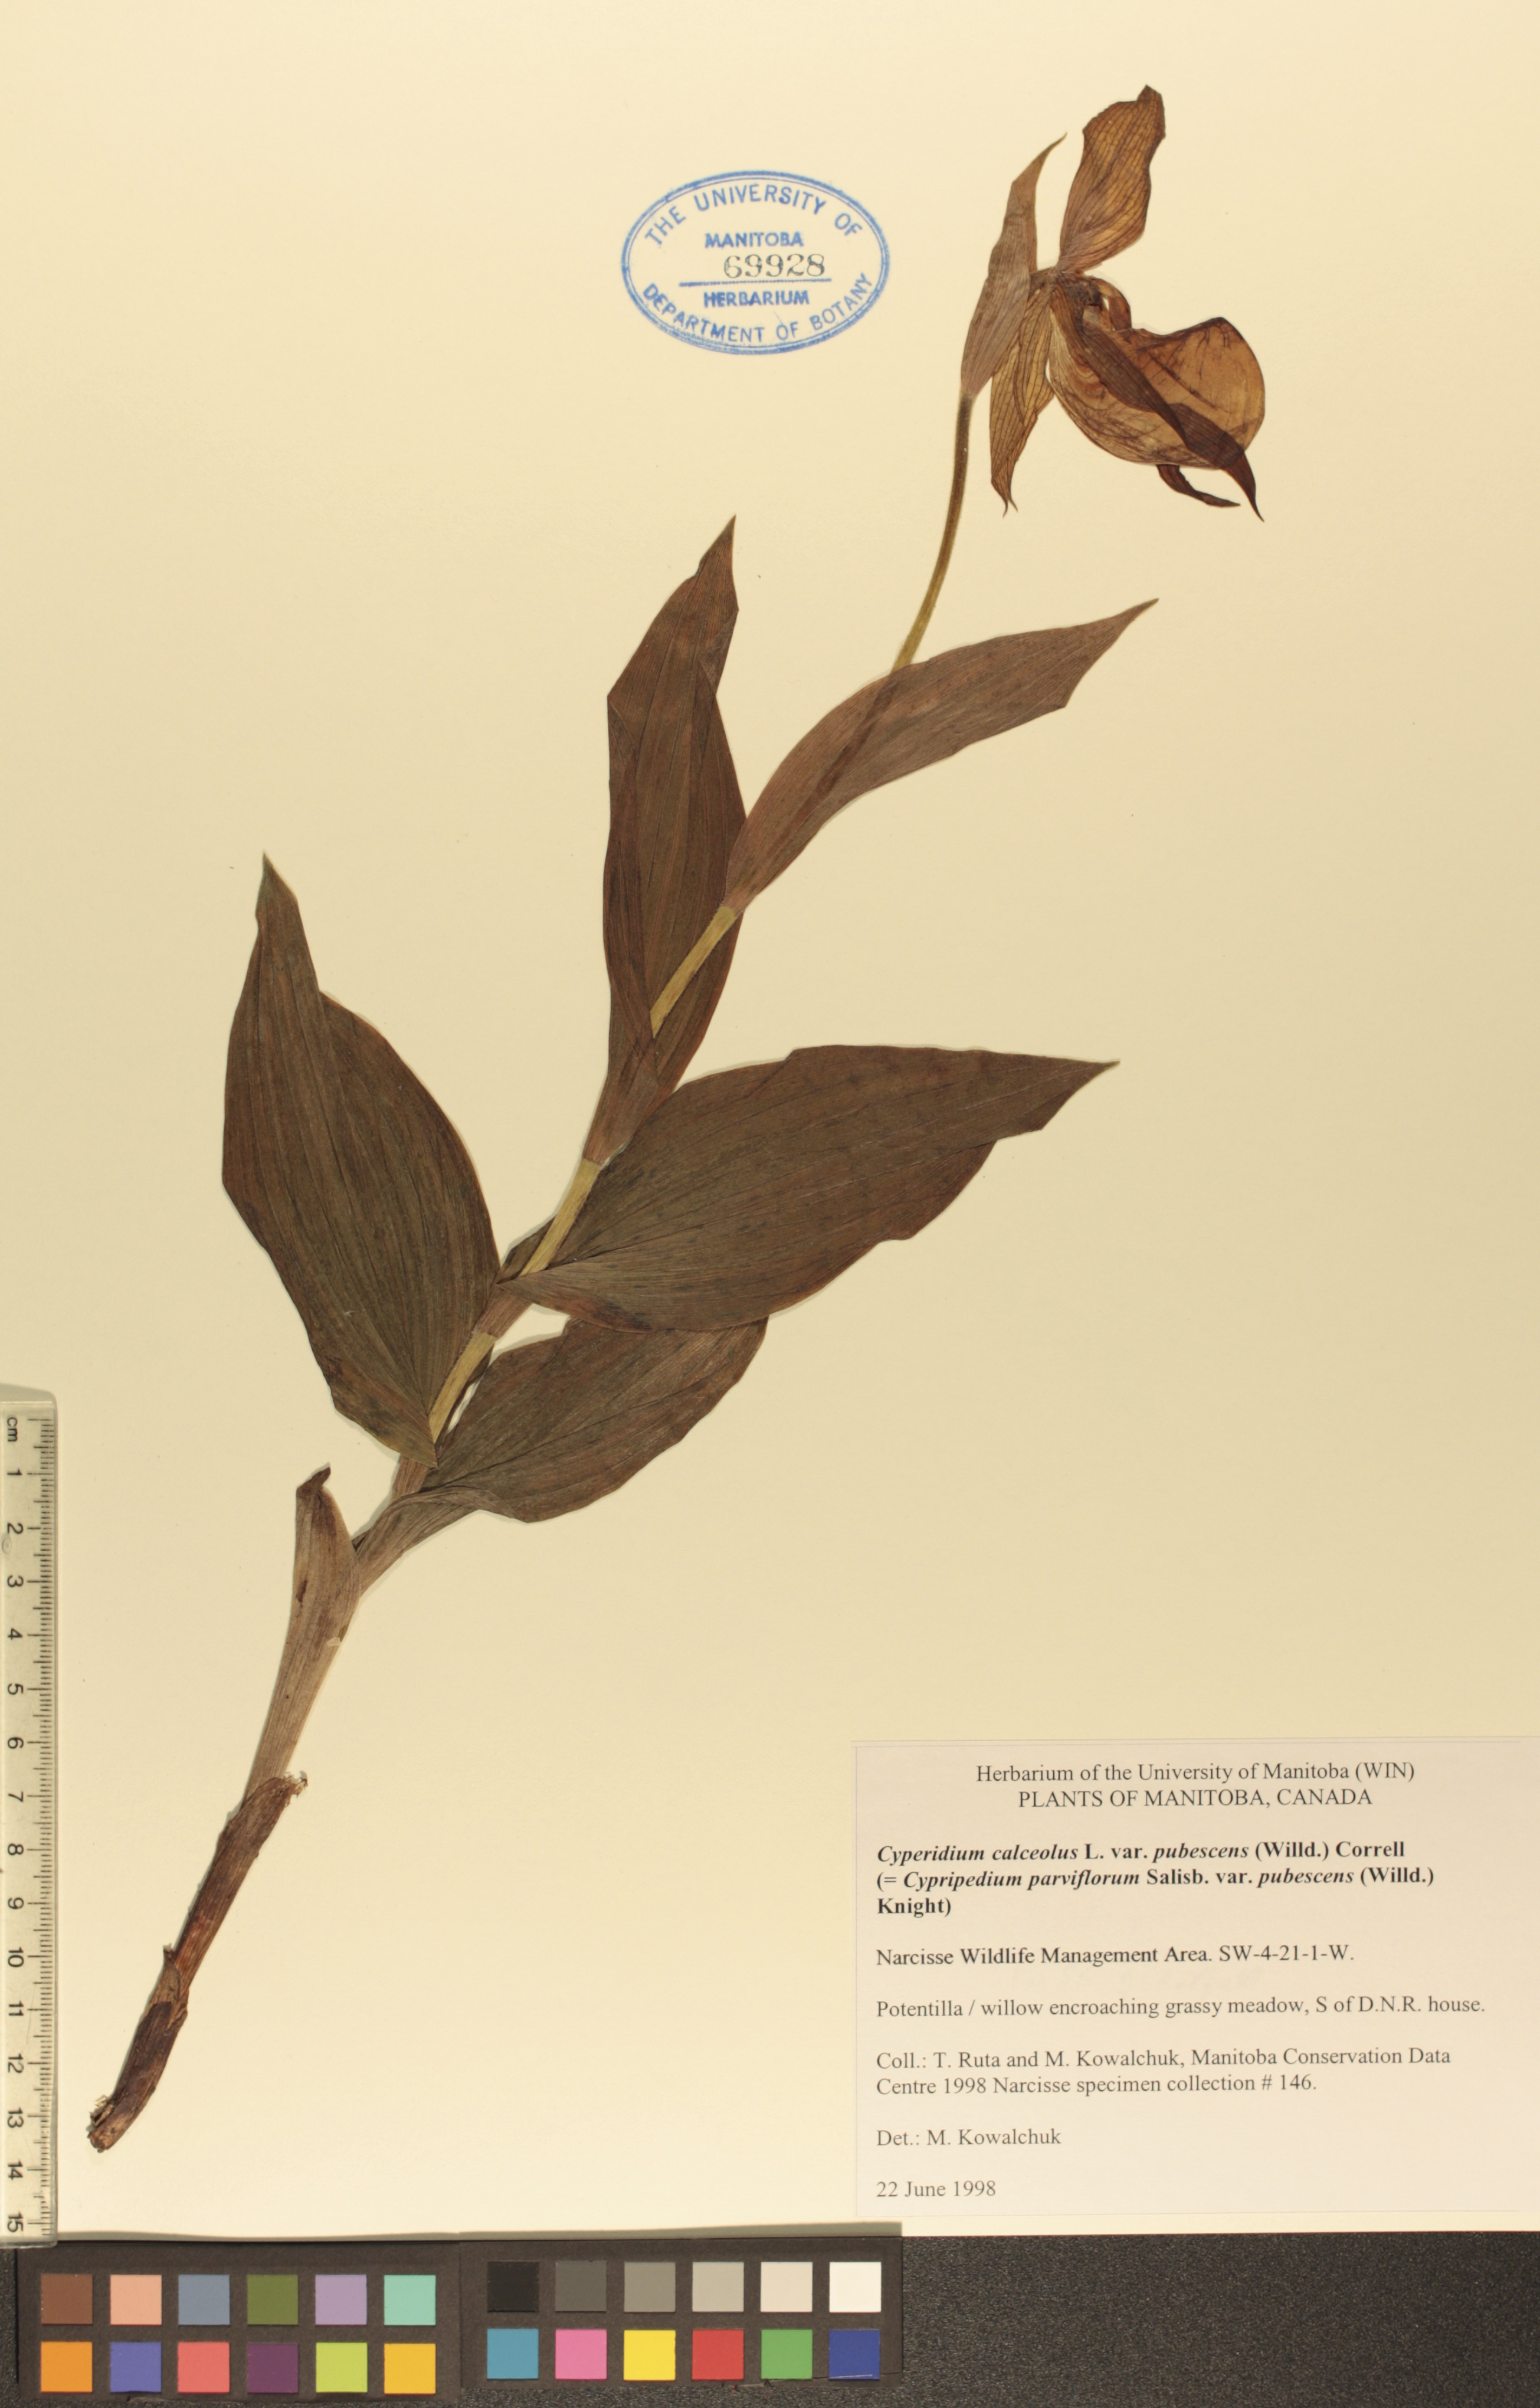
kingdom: Plantae
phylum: Tracheophyta
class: Liliopsida
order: Asparagales
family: Orchidaceae
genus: Cypripedium
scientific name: Cypripedium parviflorum
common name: American yellow lady's-slipper
